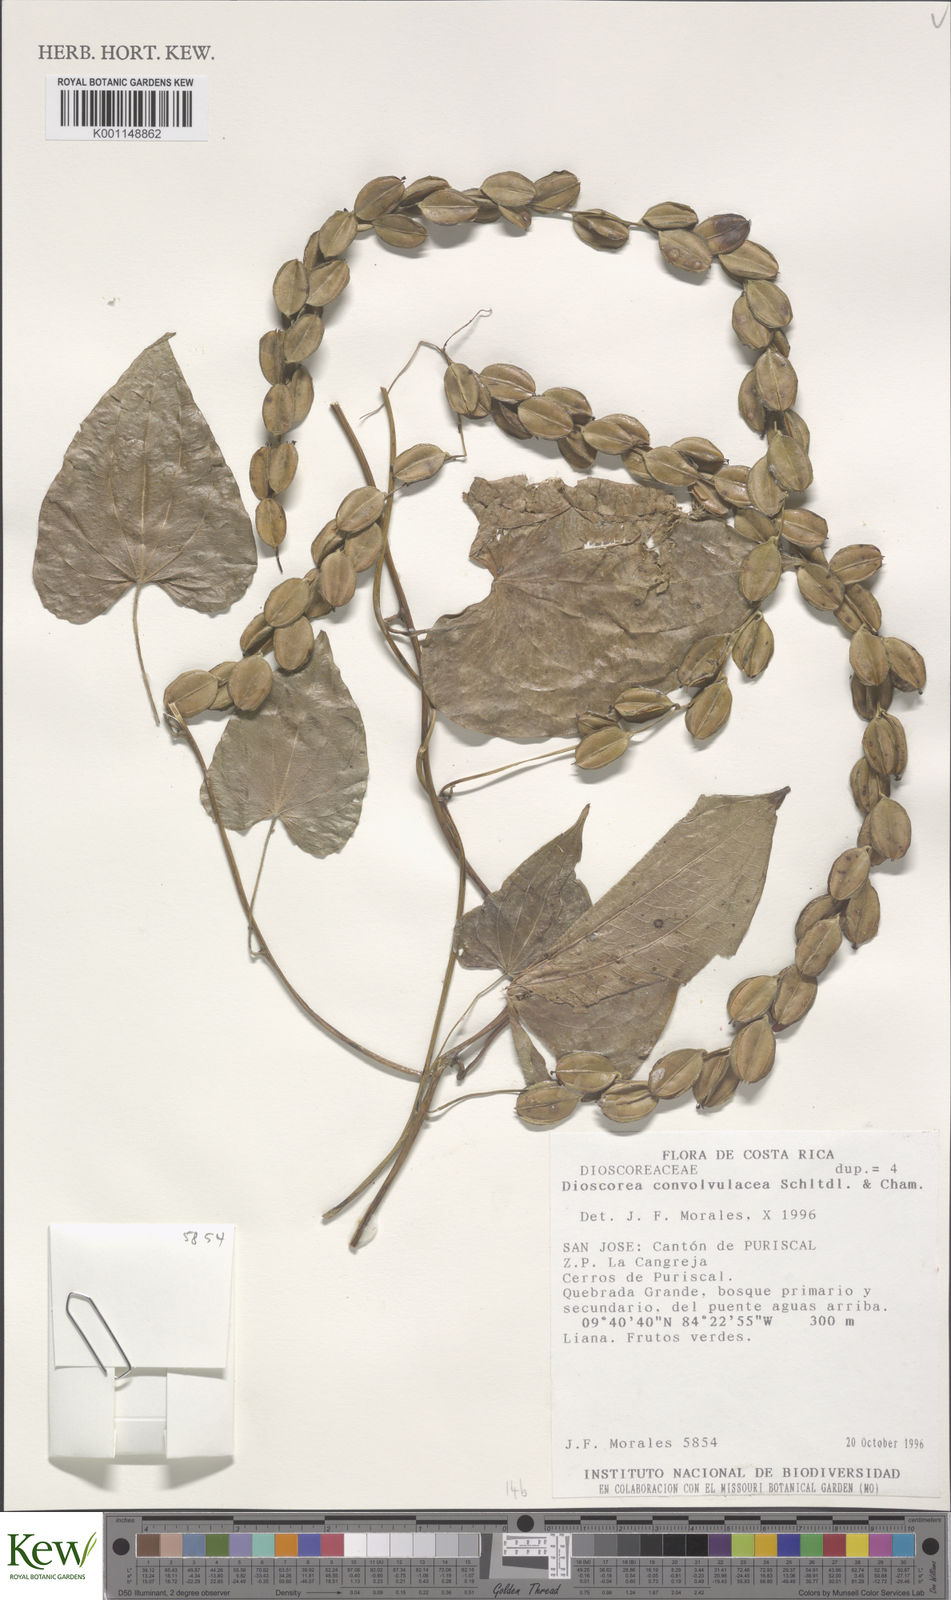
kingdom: Plantae
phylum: Tracheophyta
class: Liliopsida
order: Dioscoreales
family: Dioscoreaceae
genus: Dioscorea
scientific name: Dioscorea convolvulacea
